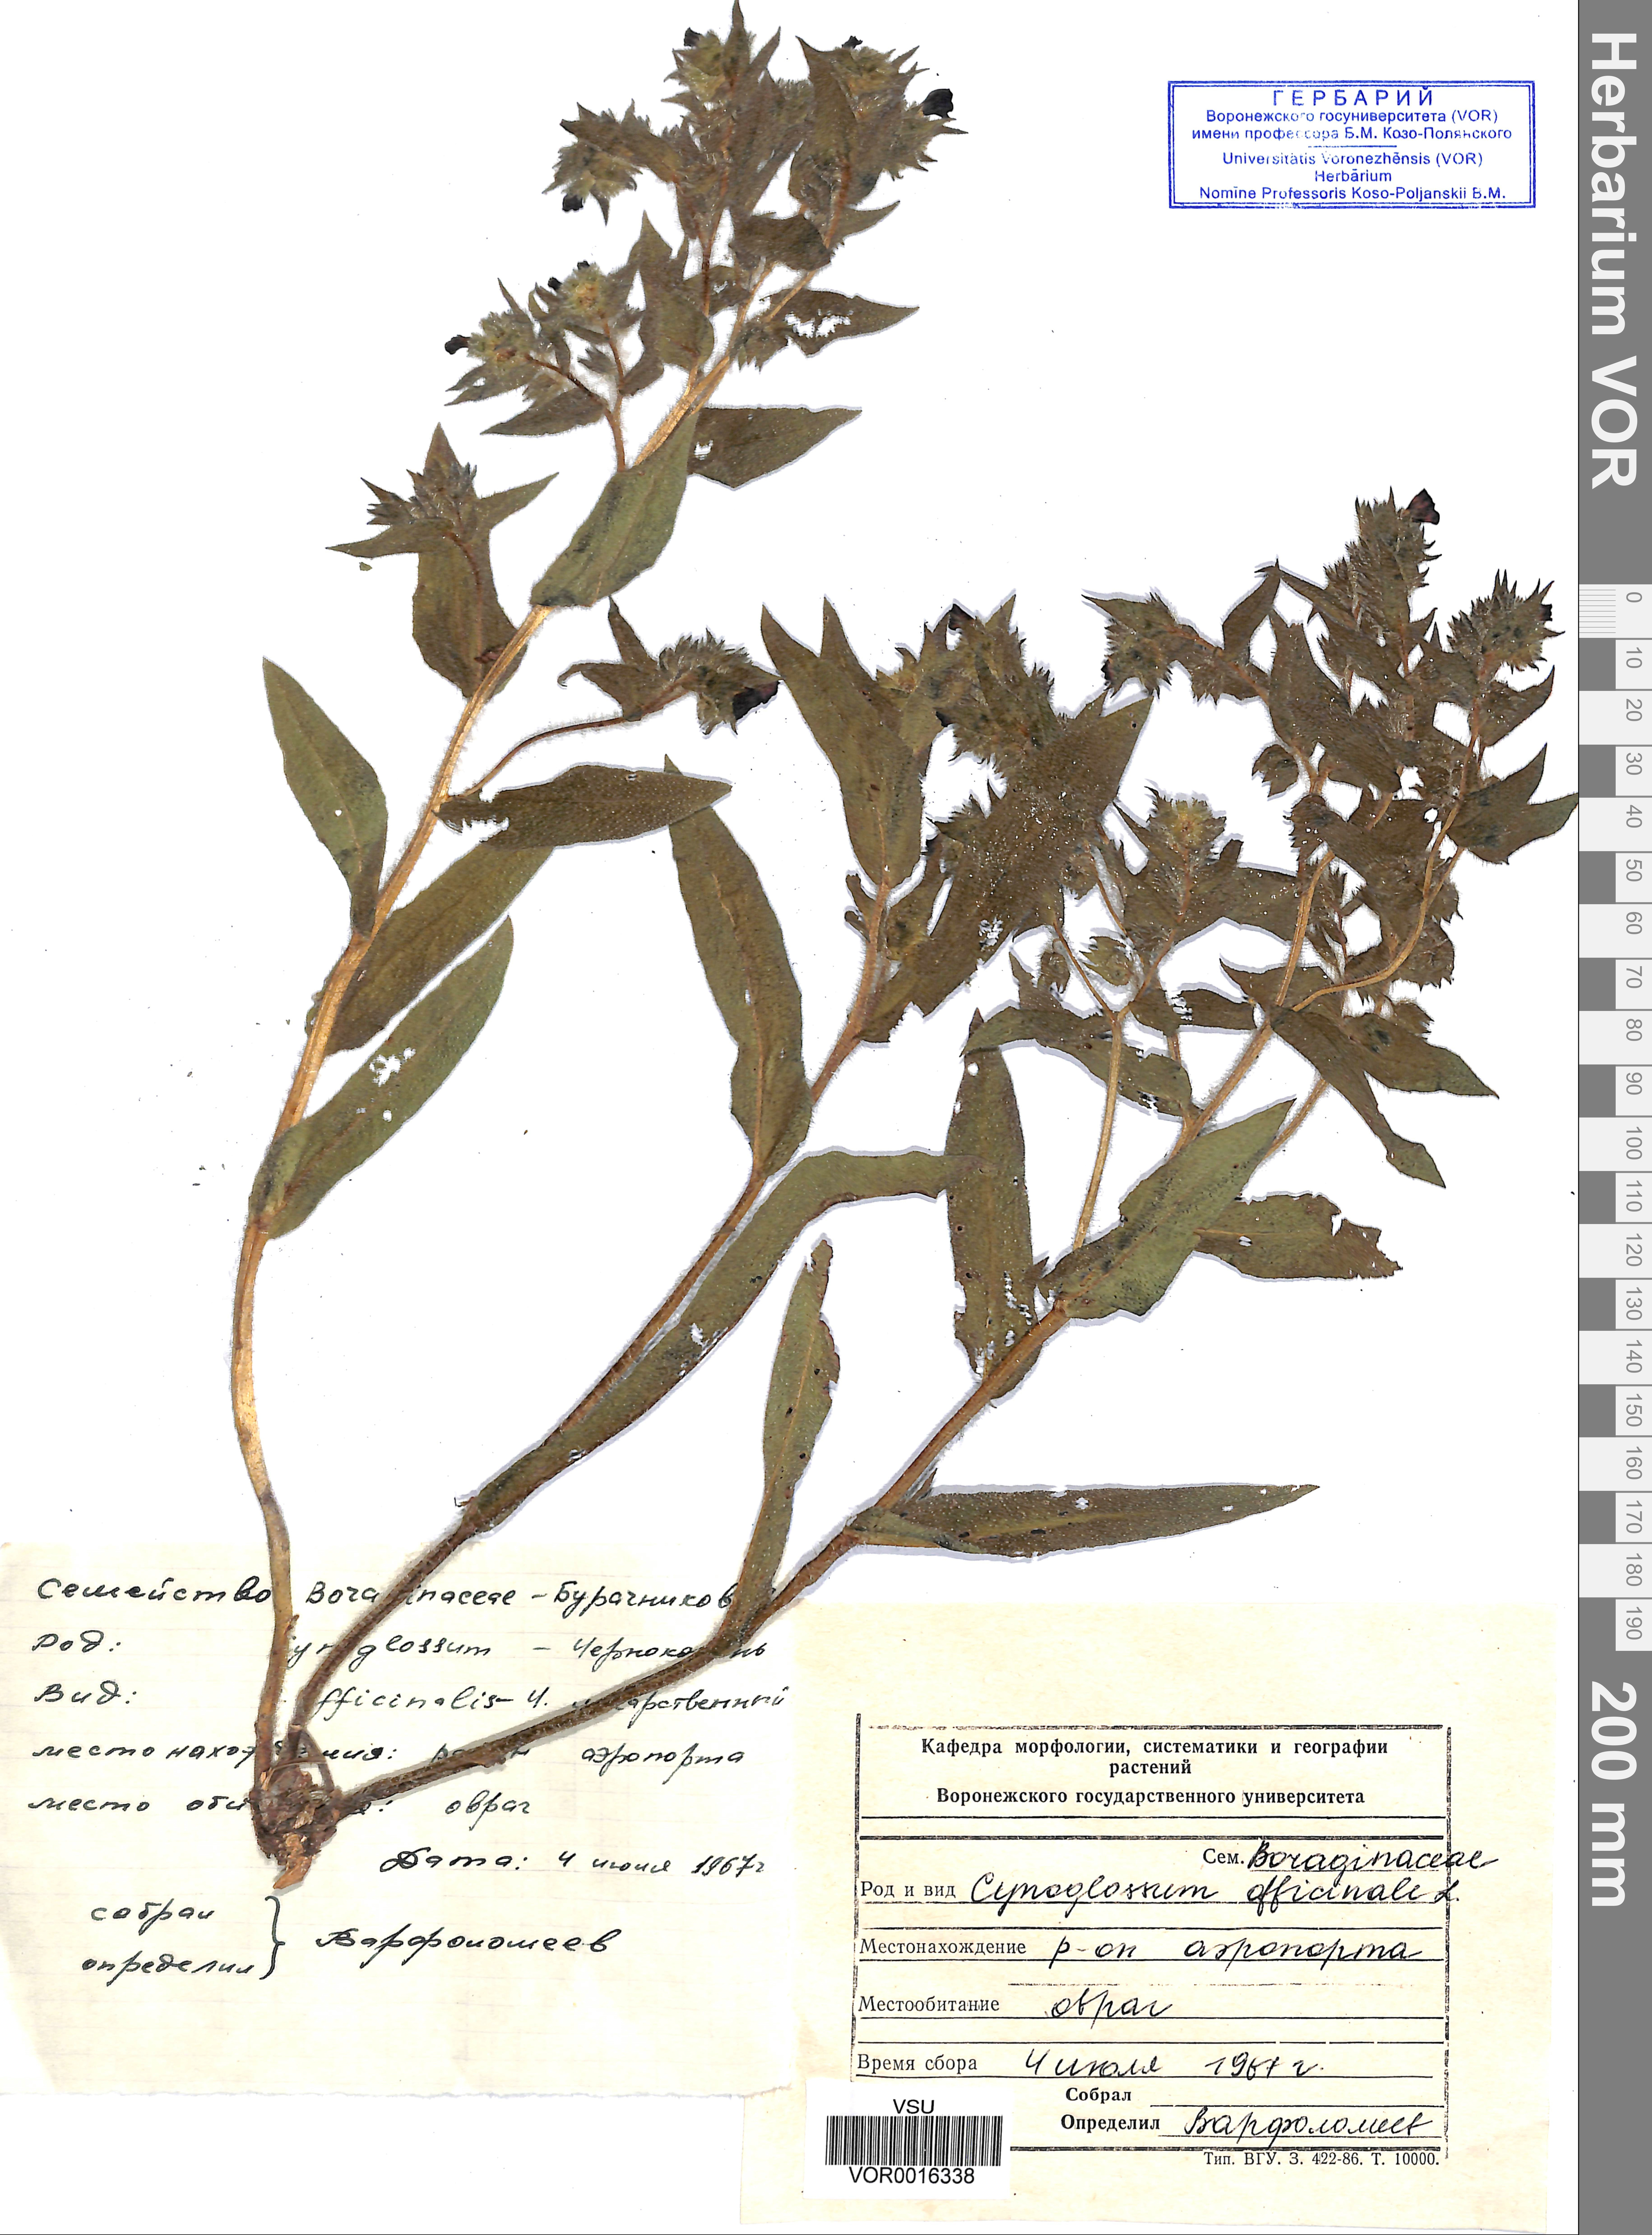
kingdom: Plantae
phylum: Tracheophyta
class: Magnoliopsida
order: Boraginales
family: Boraginaceae
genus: Cynoglossum
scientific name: Cynoglossum officinale
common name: Hound's-tongue
